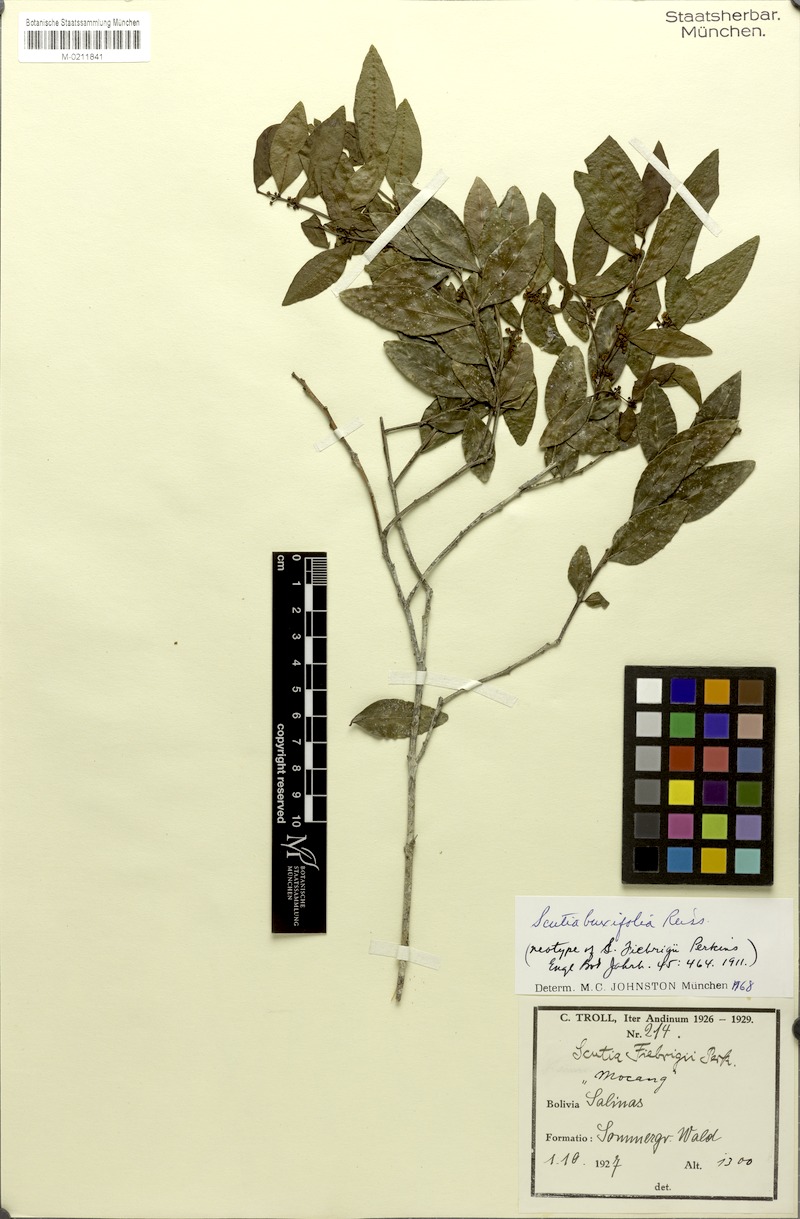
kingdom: Plantae
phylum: Tracheophyta
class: Magnoliopsida
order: Rosales
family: Rhamnaceae
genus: Scutia
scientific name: Scutia buxifolia
